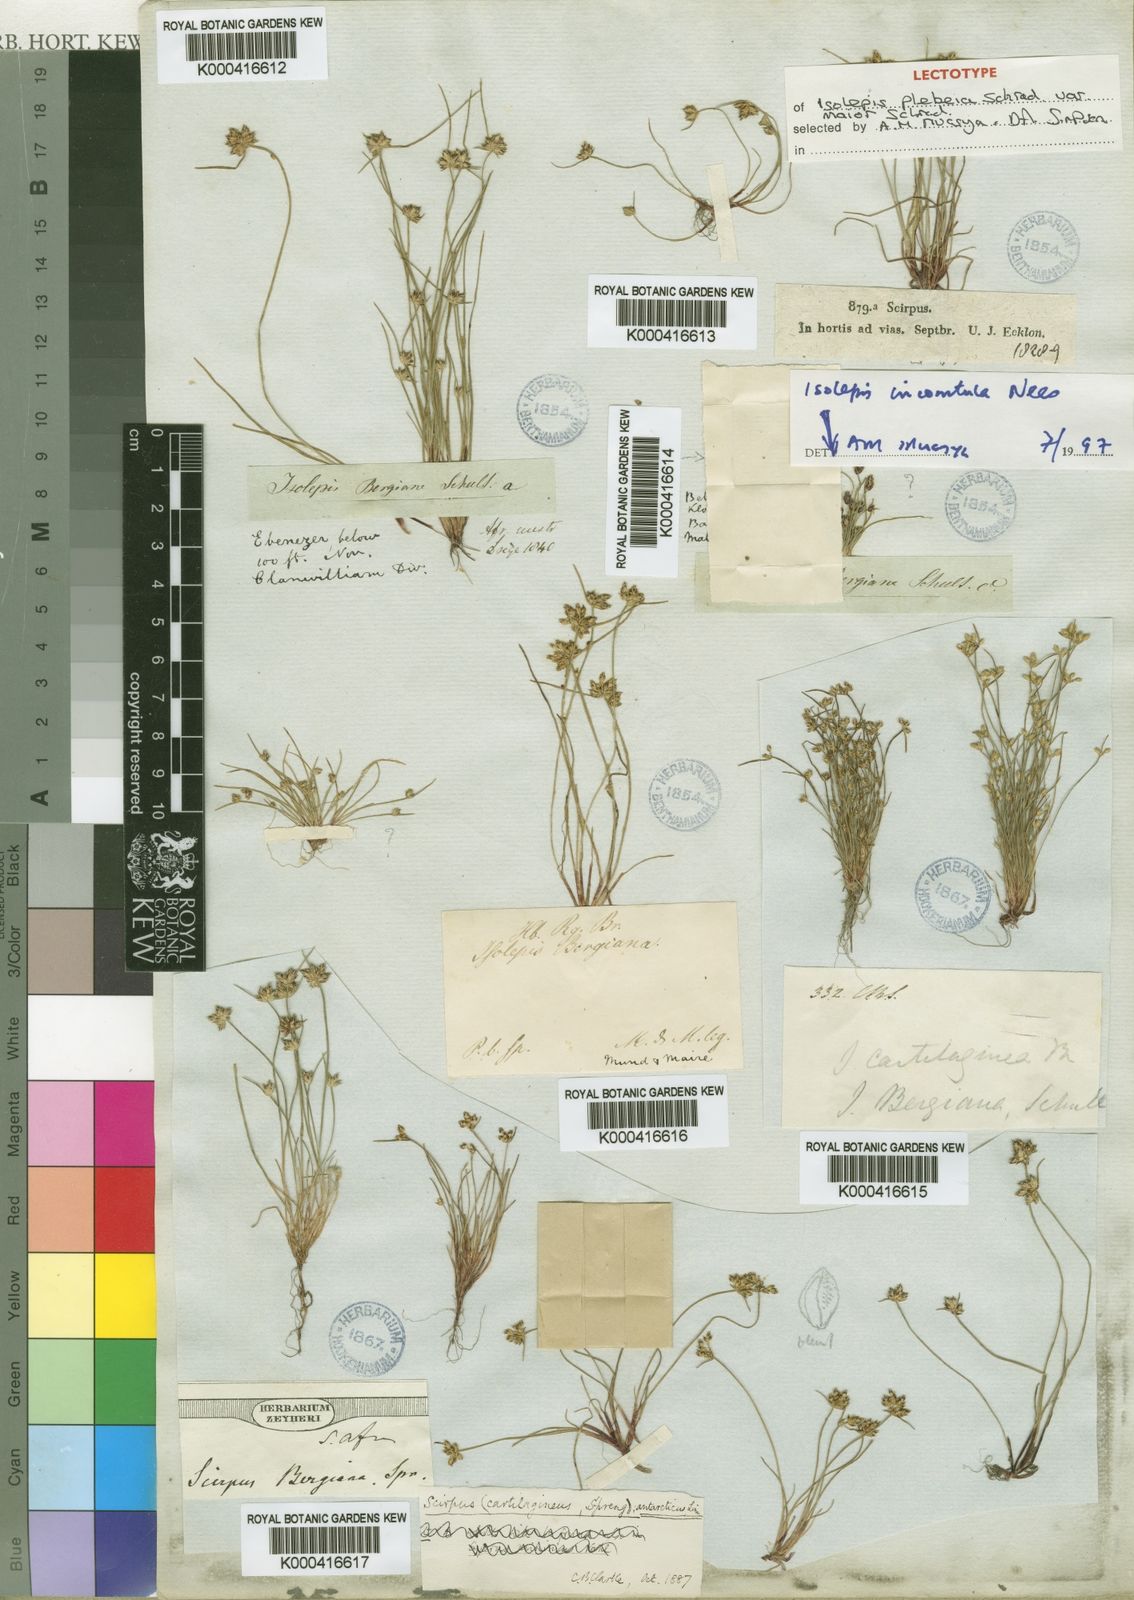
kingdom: Plantae
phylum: Tracheophyta
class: Liliopsida
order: Poales
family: Cyperaceae
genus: Isolepis
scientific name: Isolepis marginata
